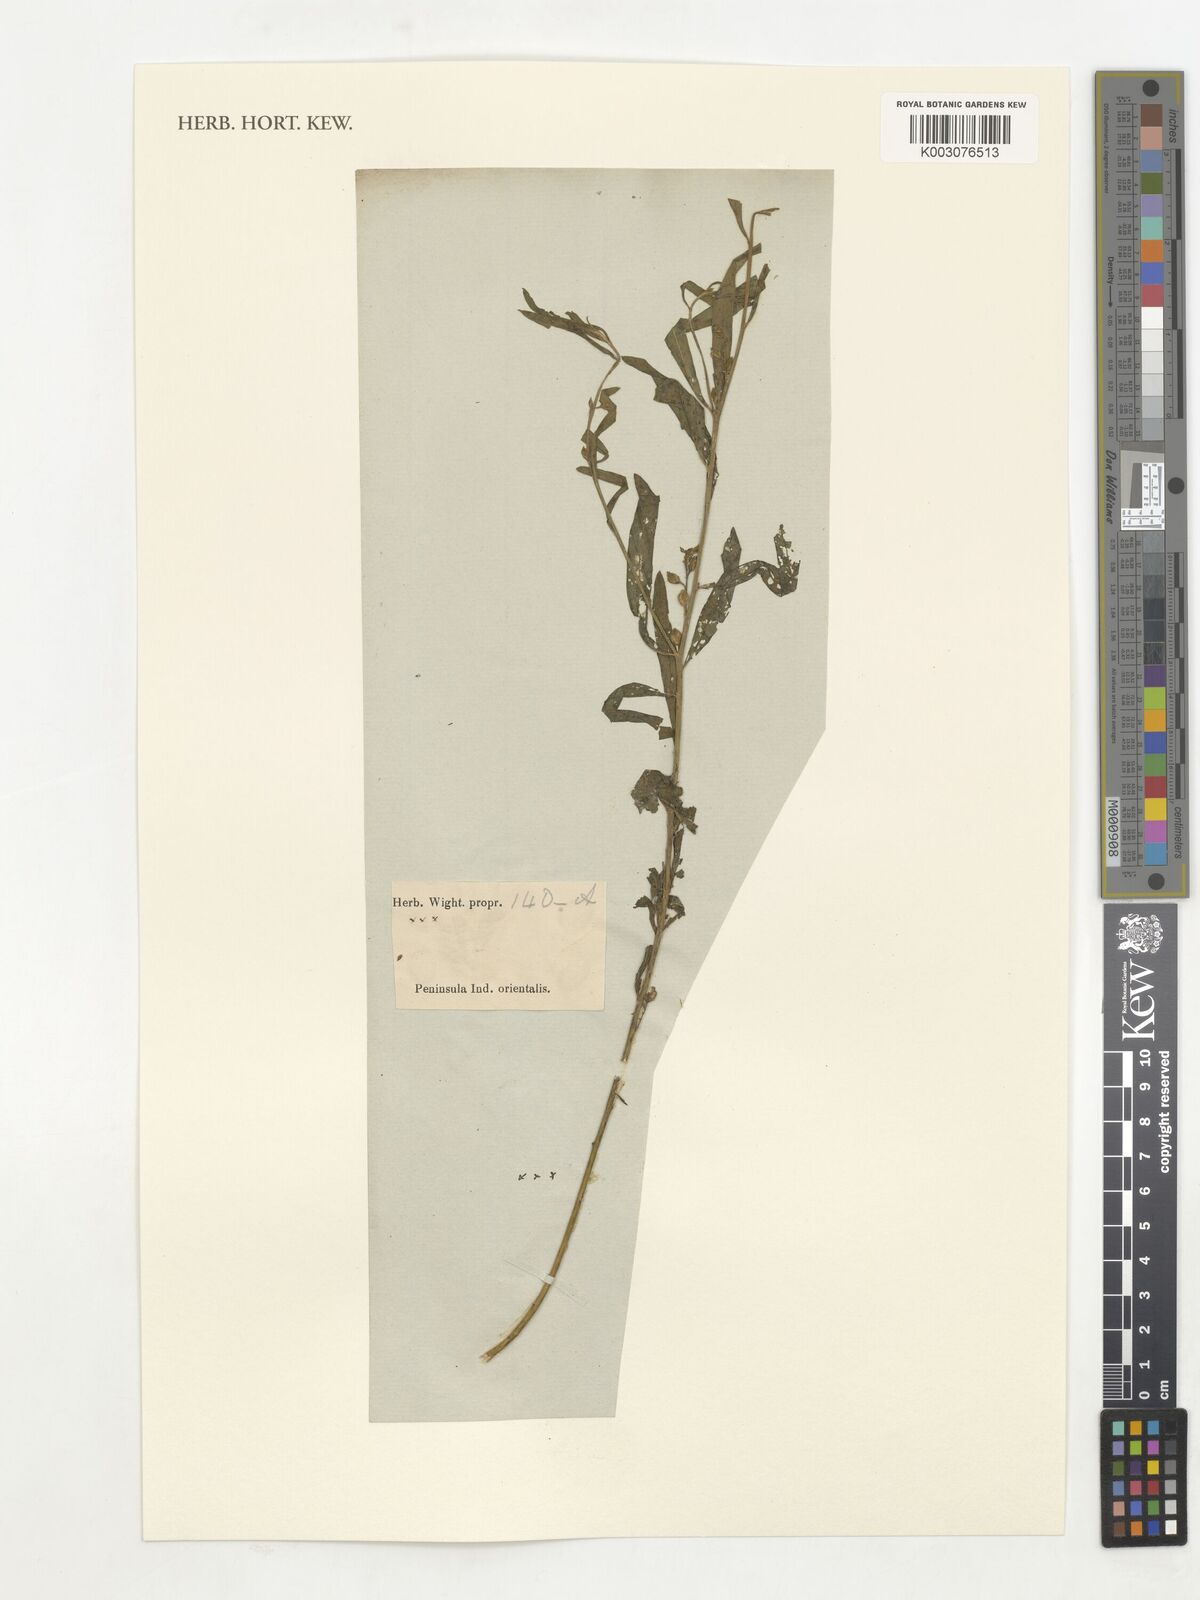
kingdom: Plantae
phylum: Tracheophyta
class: Magnoliopsida
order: Fabales
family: Polygalaceae
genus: Polygala
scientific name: Polygala
